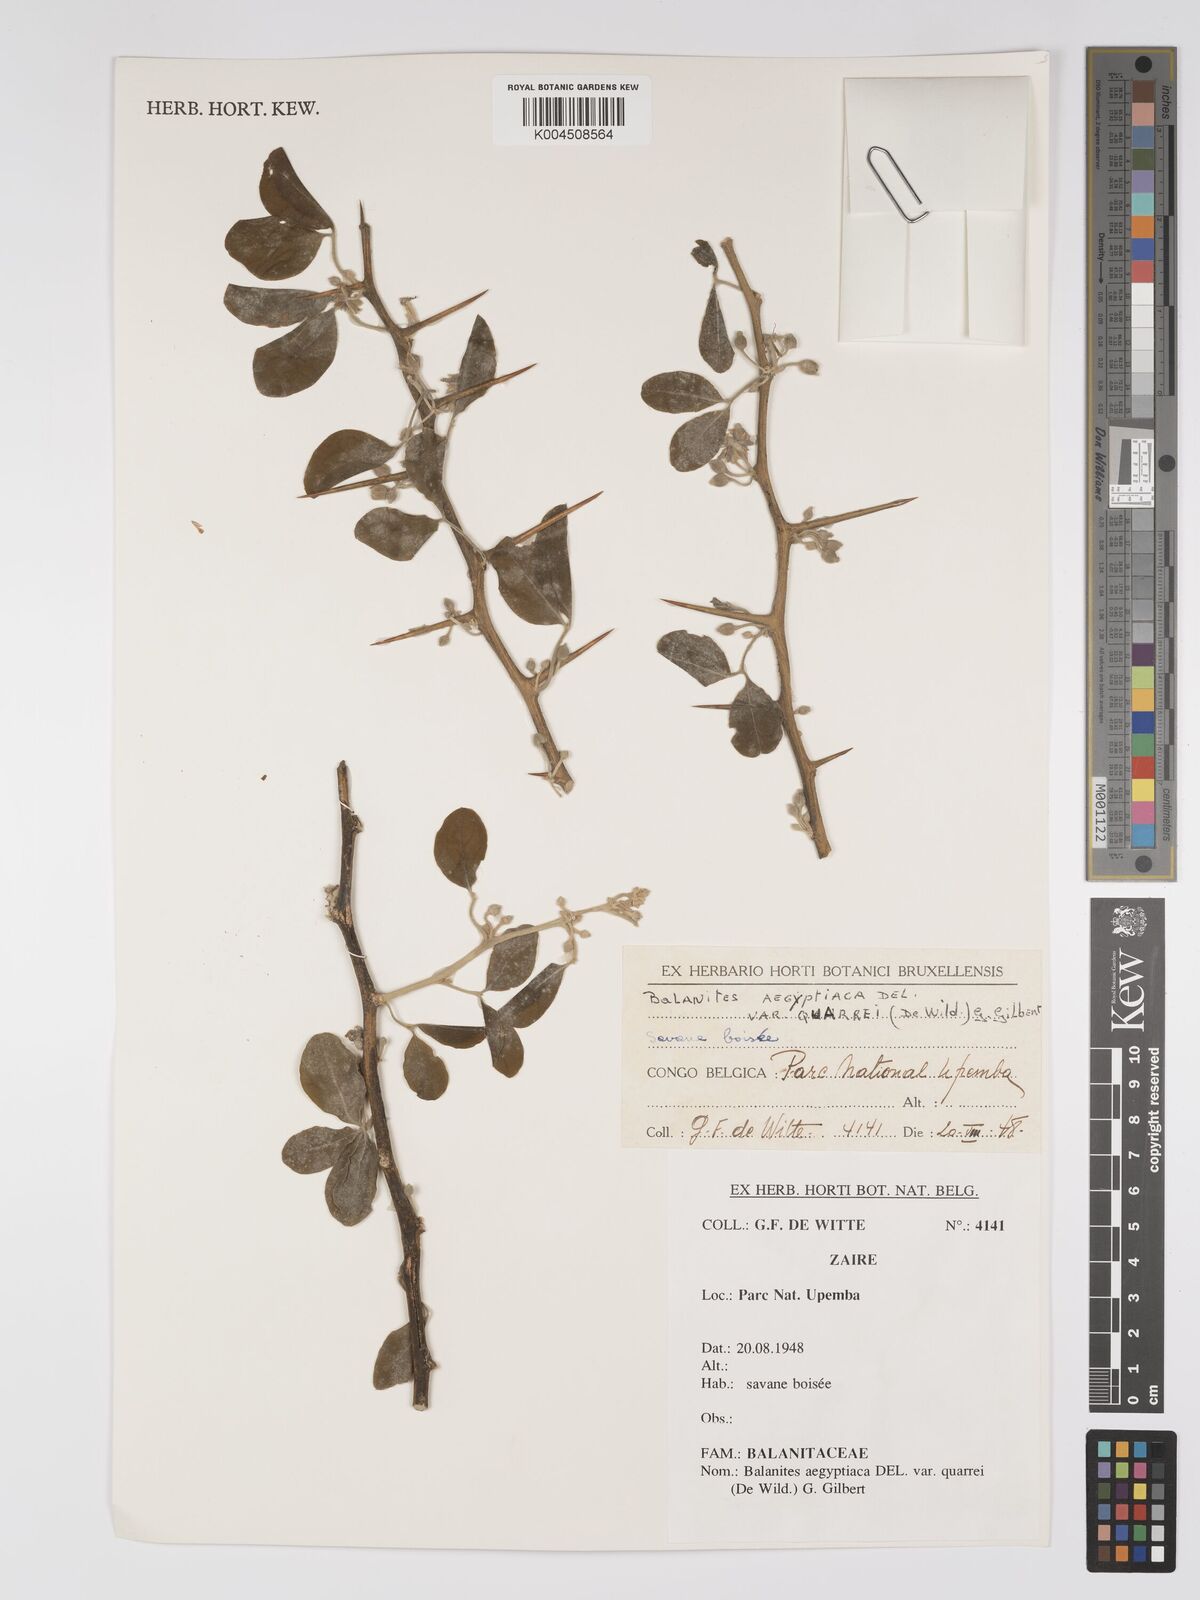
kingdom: Plantae
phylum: Tracheophyta
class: Magnoliopsida
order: Zygophyllales
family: Zygophyllaceae
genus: Balanites
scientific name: Balanites aegyptiaca
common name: Balanites
